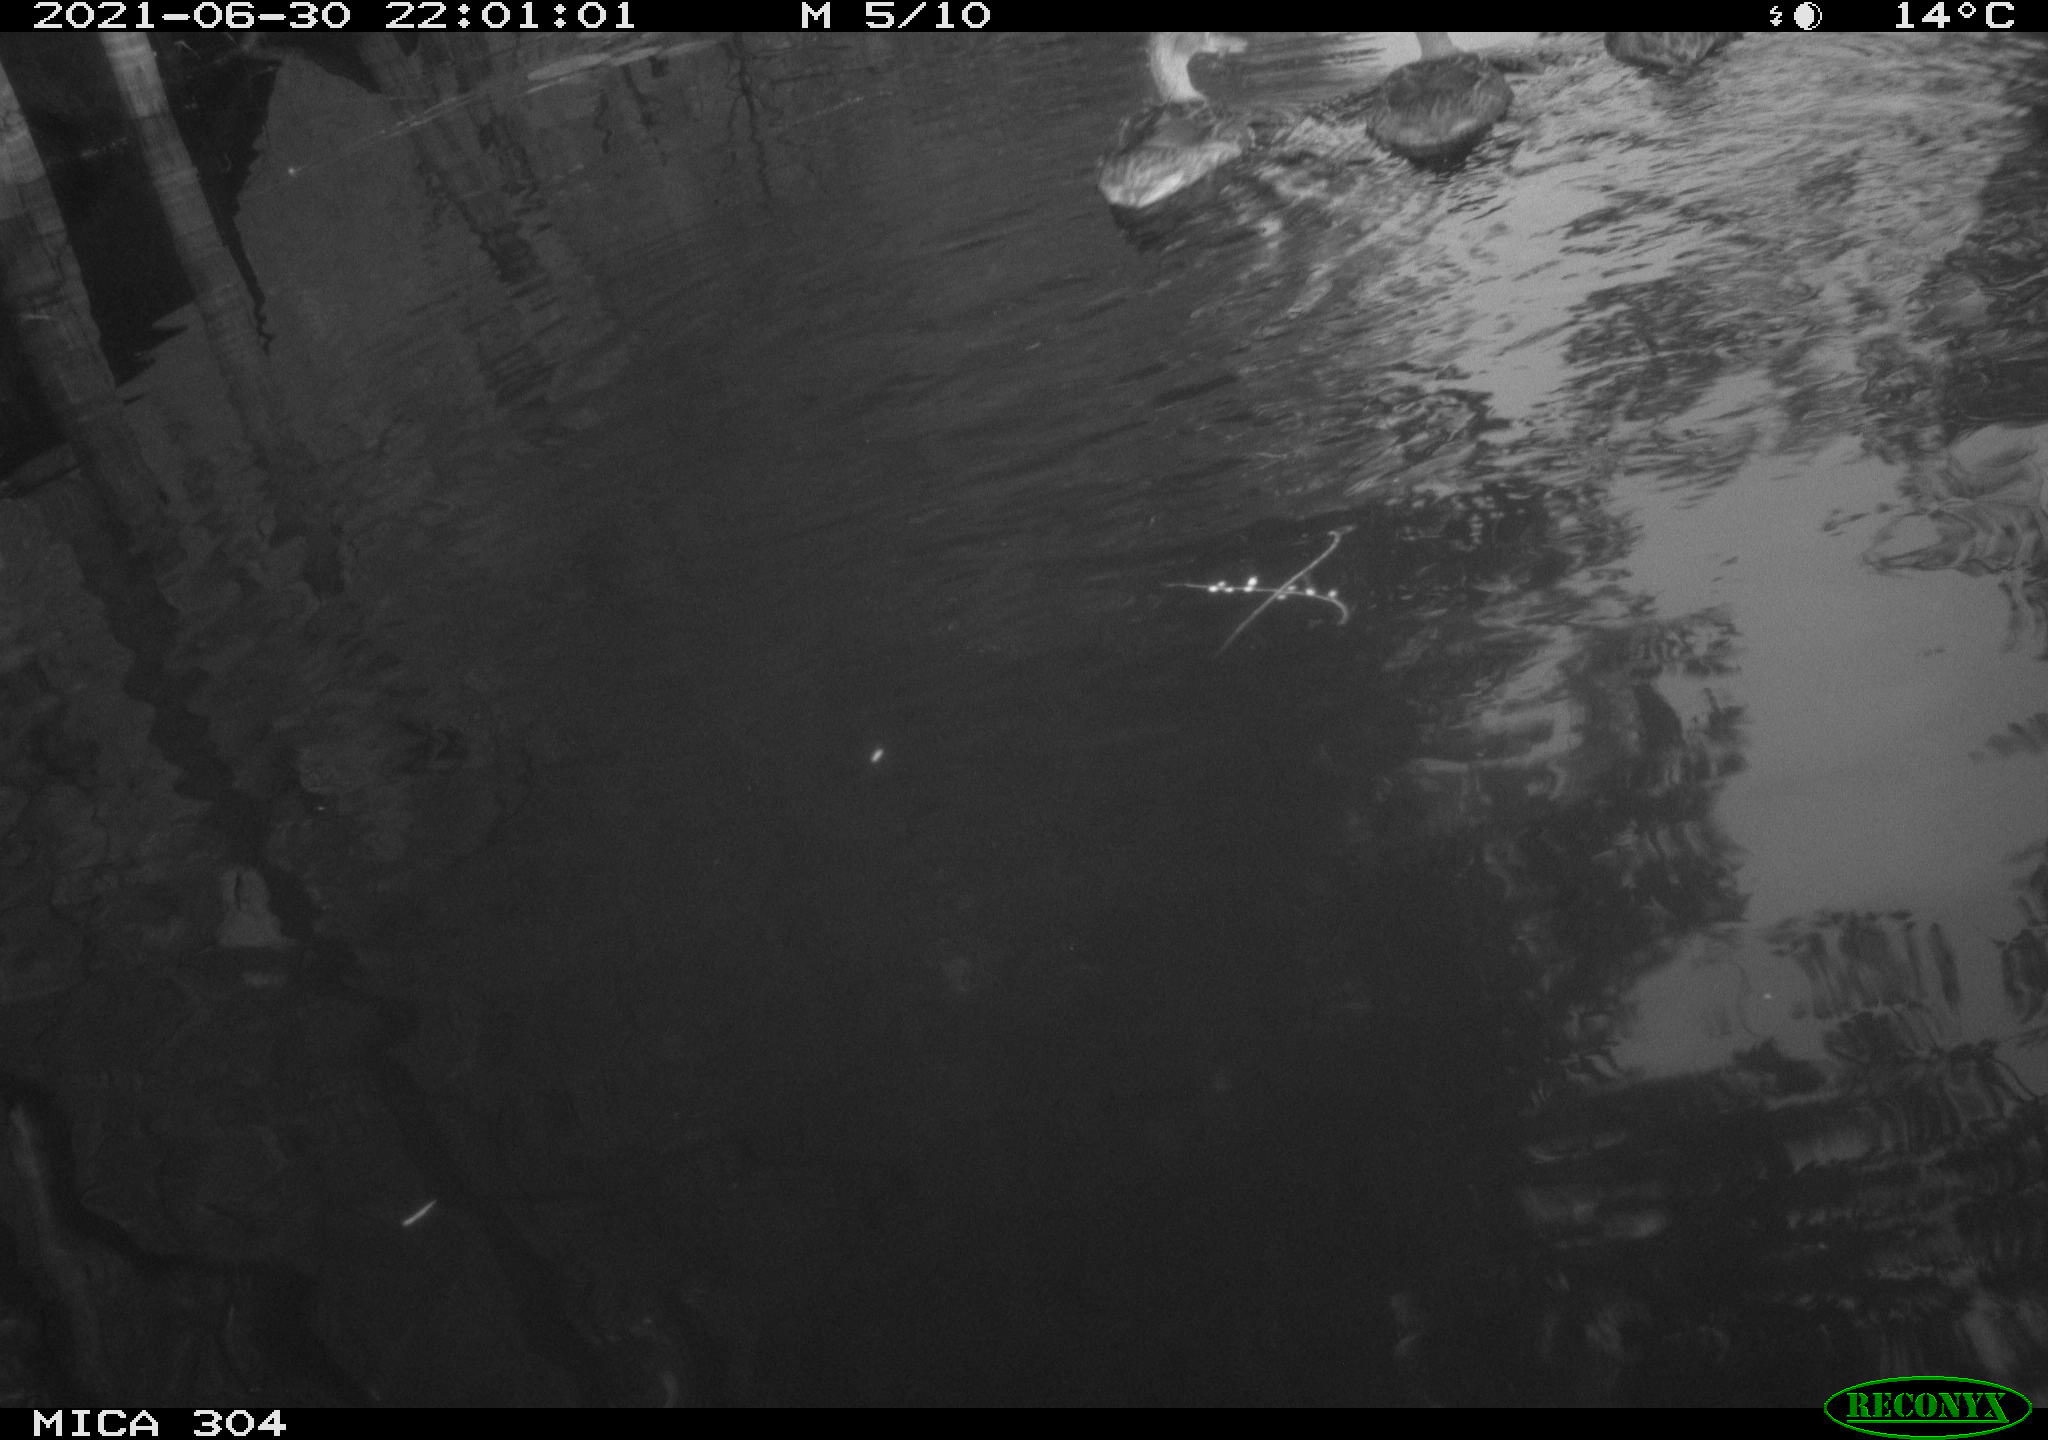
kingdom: Animalia
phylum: Chordata
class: Aves
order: Anseriformes
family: Anatidae
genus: Anas
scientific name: Anas platyrhynchos
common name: Mallard
